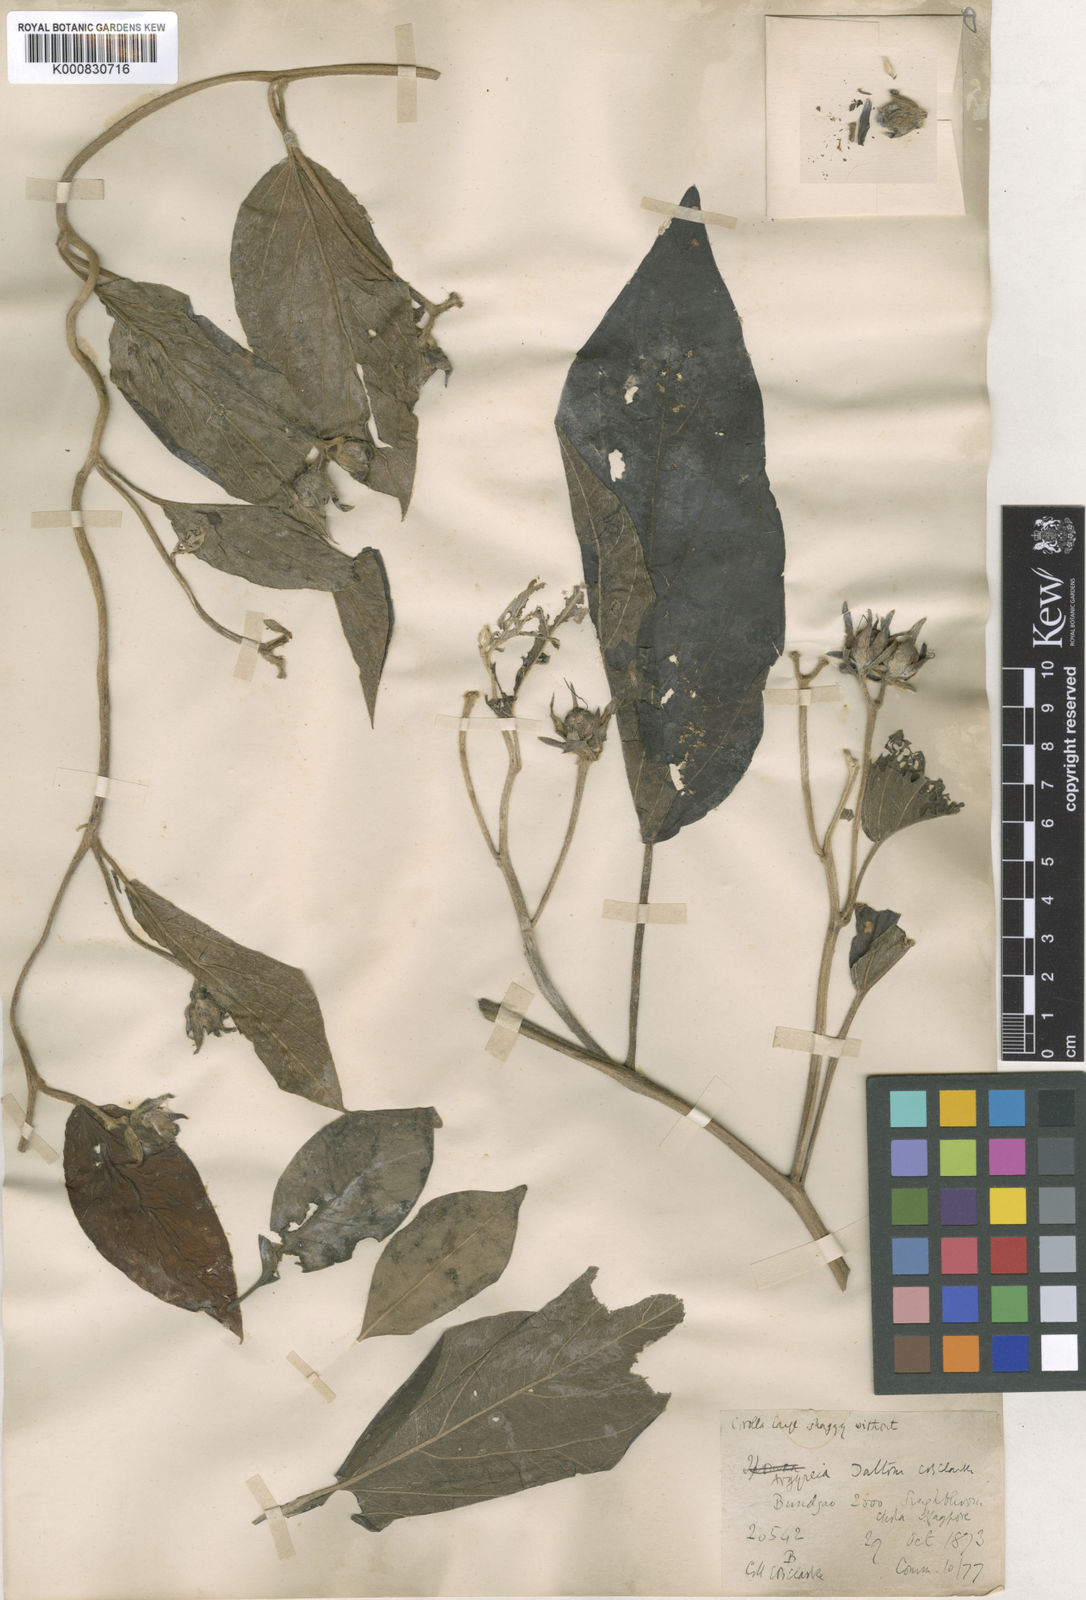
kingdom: Plantae
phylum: Tracheophyta
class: Magnoliopsida
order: Solanales
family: Convolvulaceae
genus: Argyreia
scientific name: Argyreia daltonii
